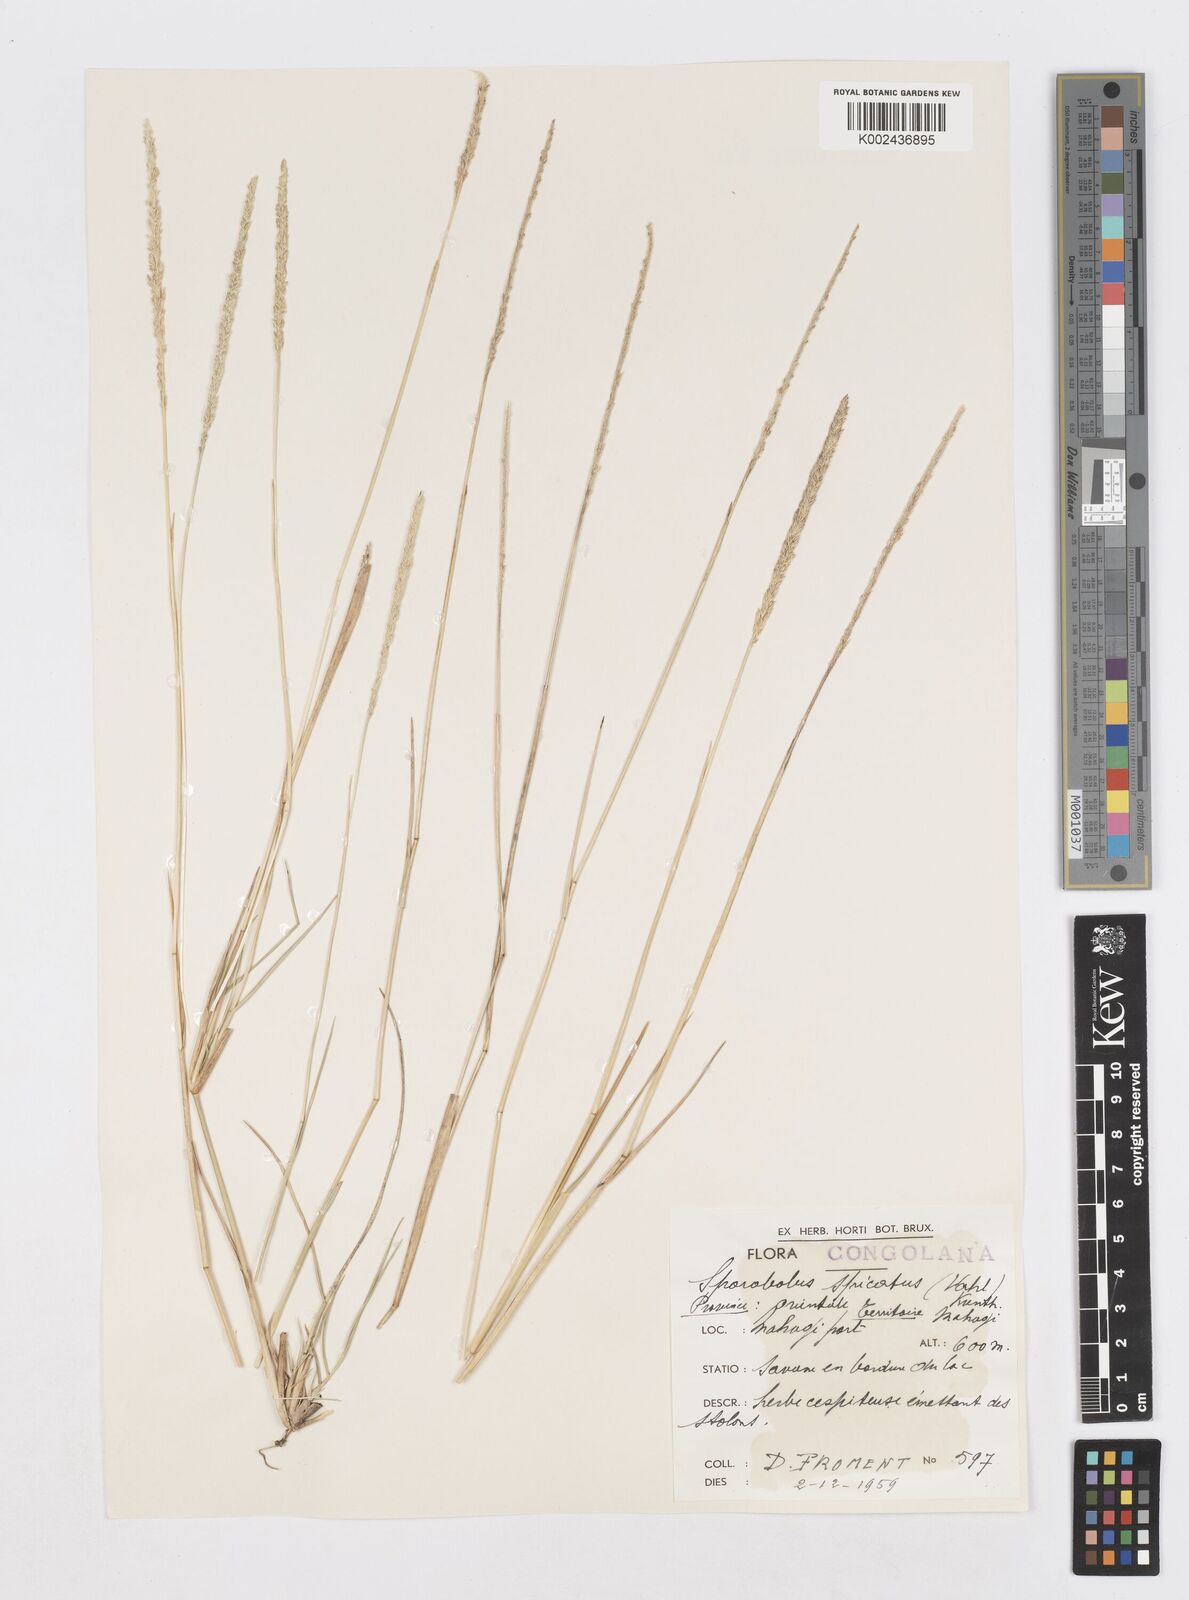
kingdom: Plantae
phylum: Tracheophyta
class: Liliopsida
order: Poales
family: Poaceae
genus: Sporobolus
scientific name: Sporobolus spicatus
